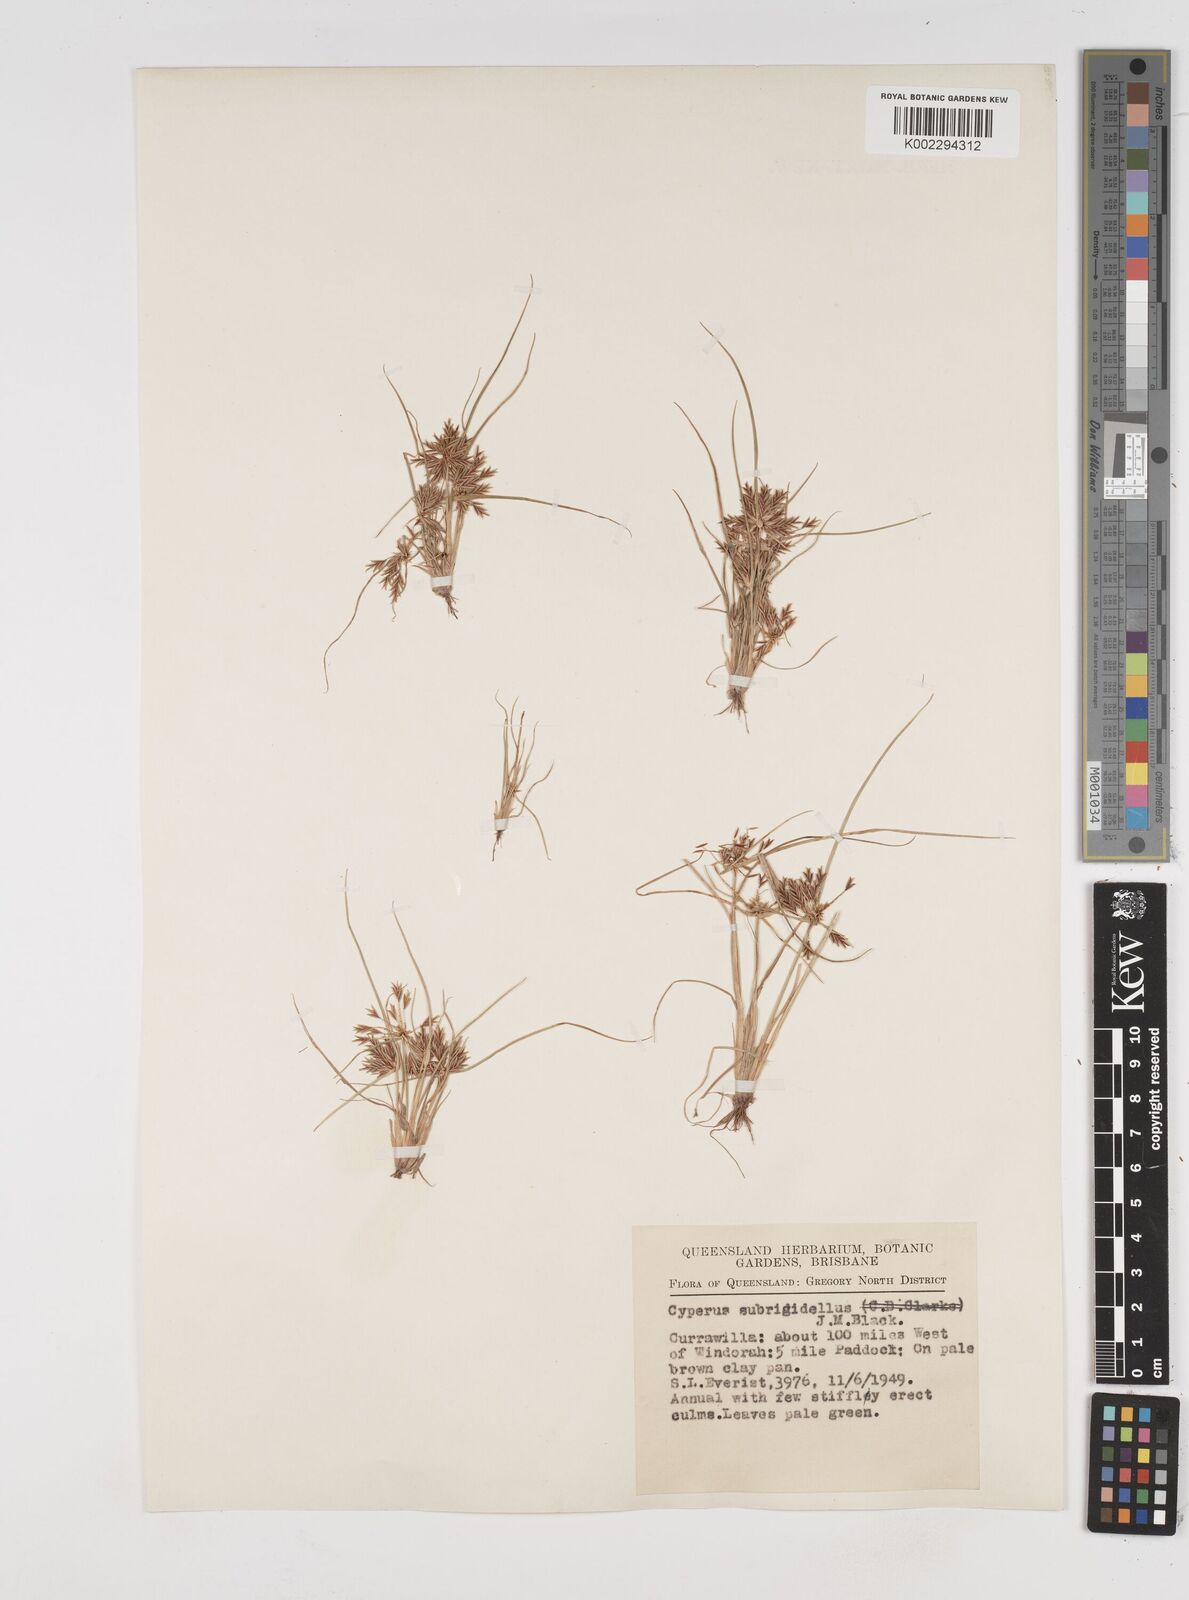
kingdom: Plantae
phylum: Tracheophyta
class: Liliopsida
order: Poales
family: Cyperaceae
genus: Cyperus
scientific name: Cyperus rigidellus
